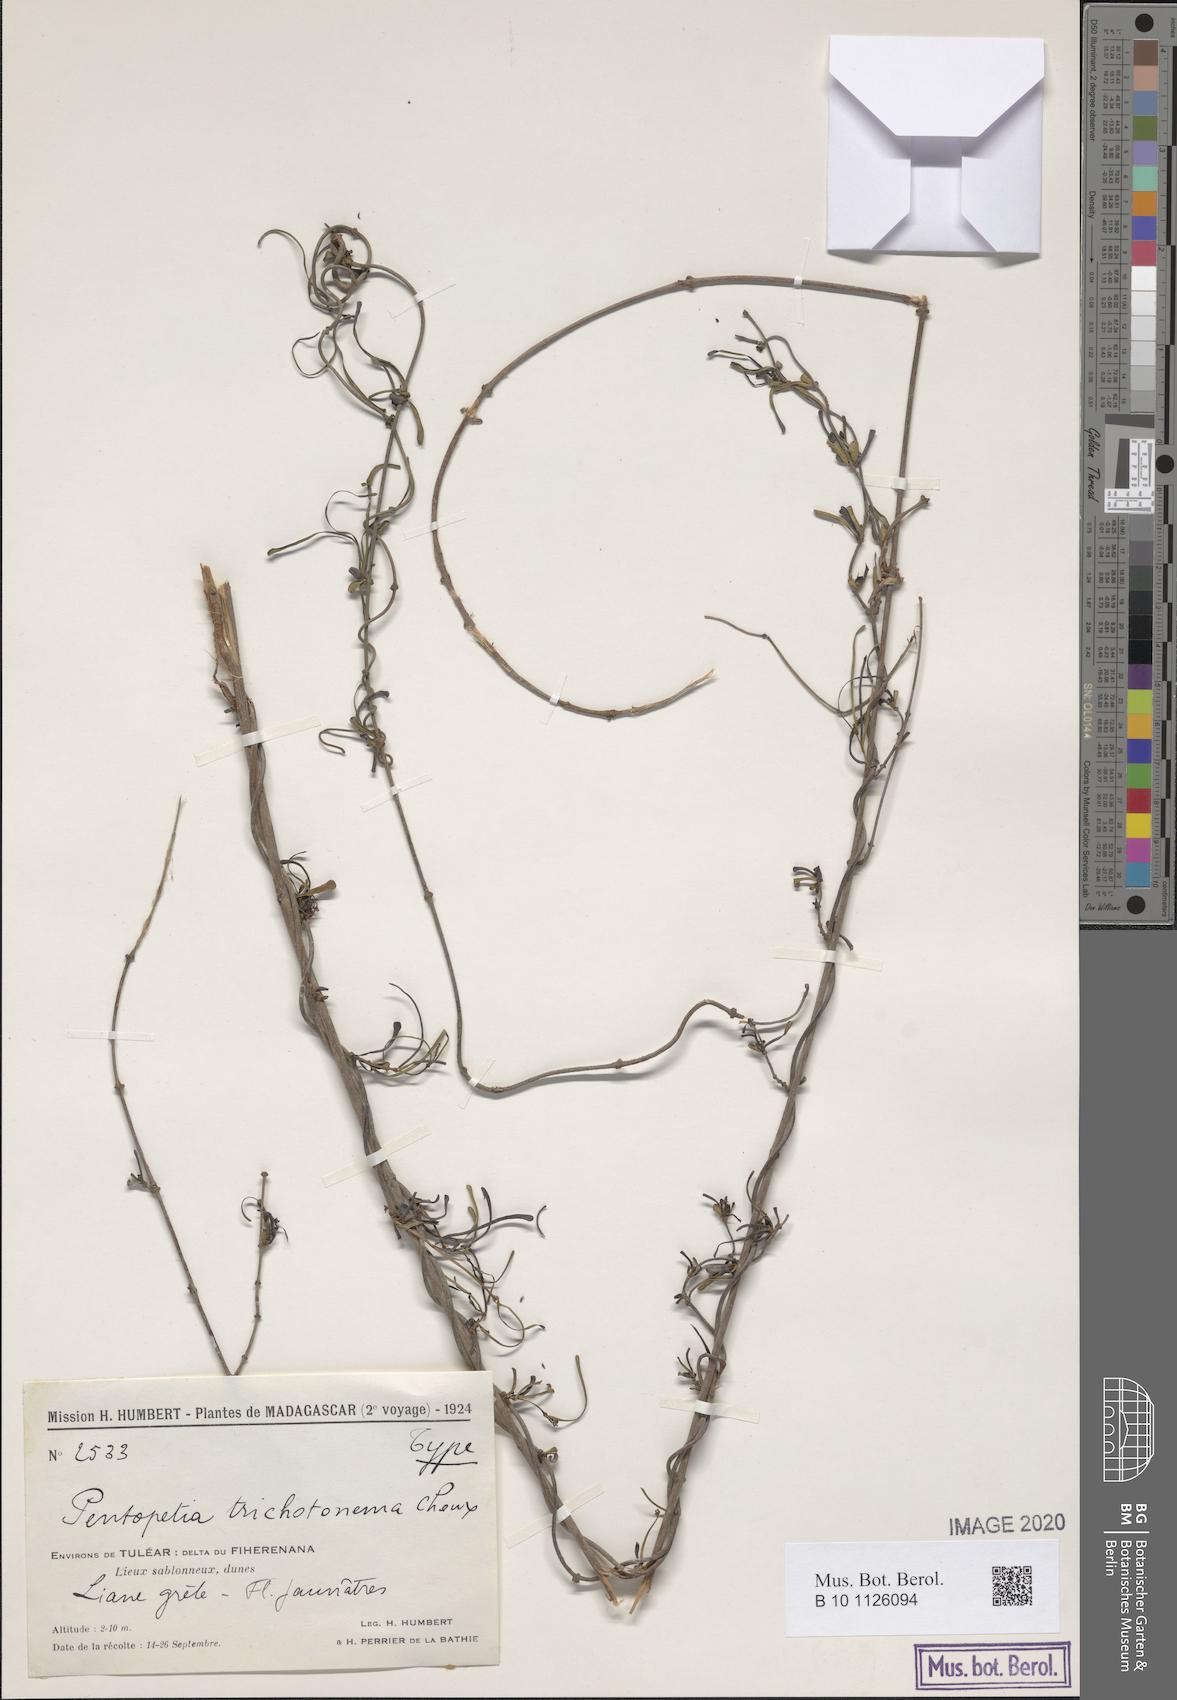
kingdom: Plantae
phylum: Tracheophyta
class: Magnoliopsida
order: Gentianales
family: Apocynaceae
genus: Pentopetia
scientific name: Pentopetia dasynema
